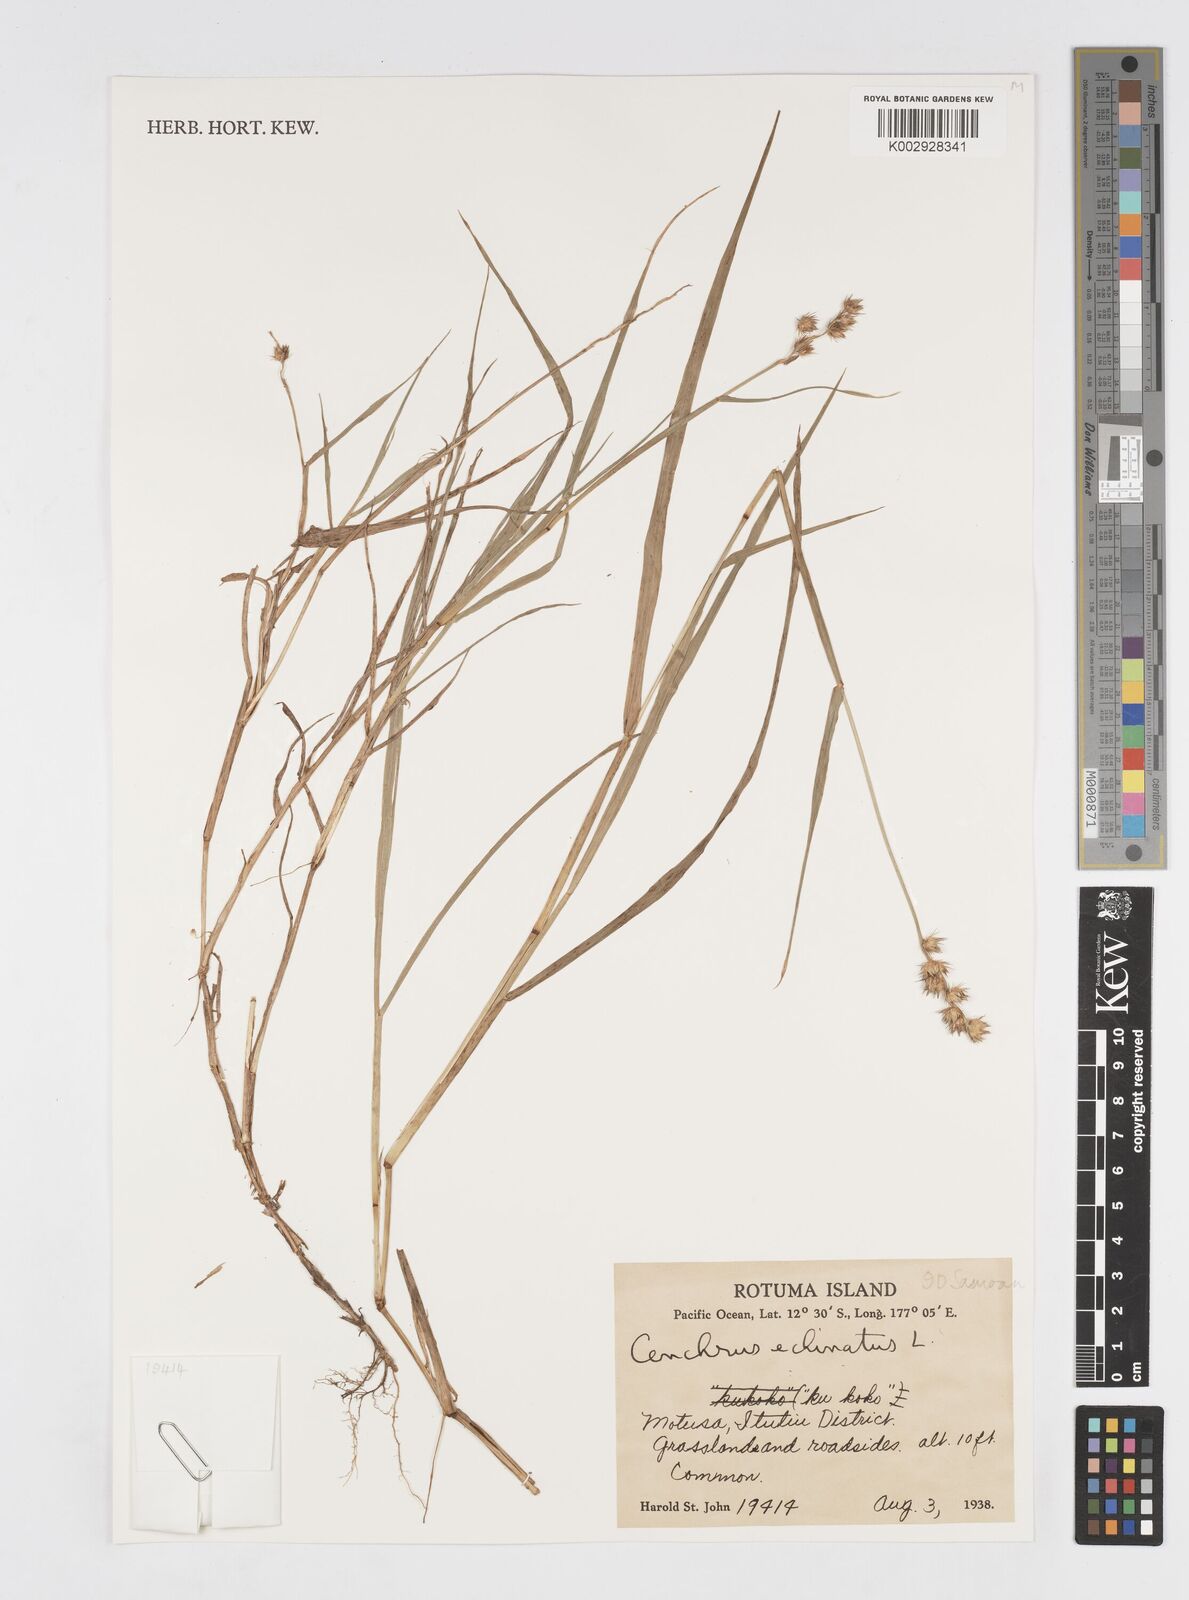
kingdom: Plantae
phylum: Tracheophyta
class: Liliopsida
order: Poales
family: Poaceae
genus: Cenchrus
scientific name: Cenchrus echinatus
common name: Southern sandbur
